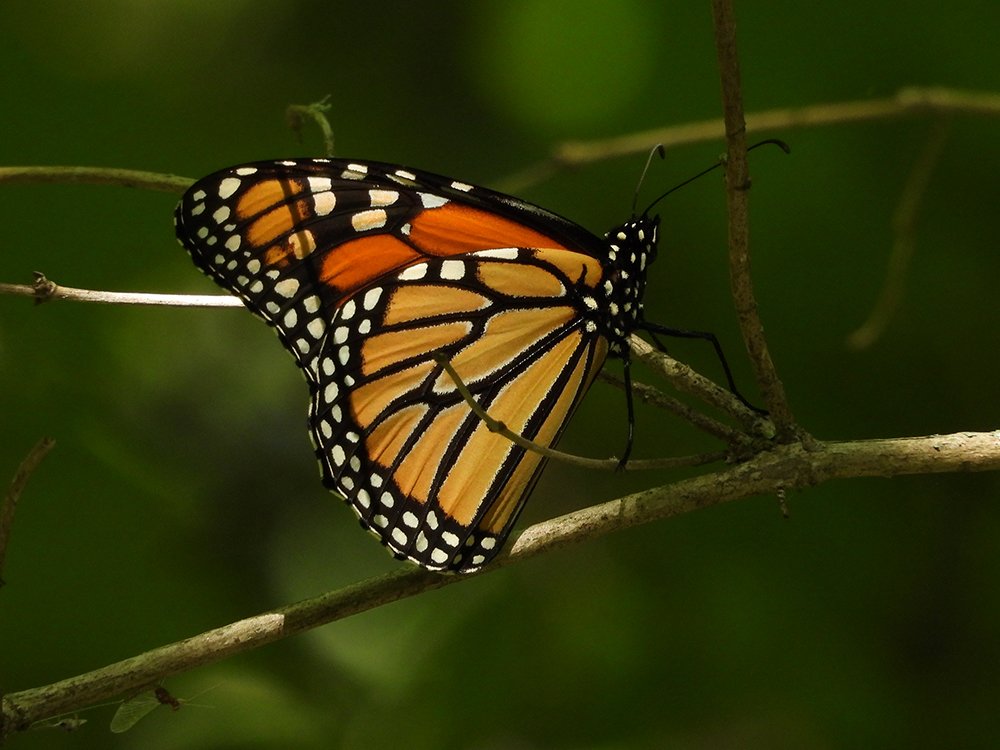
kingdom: Animalia
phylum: Arthropoda
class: Insecta
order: Lepidoptera
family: Nymphalidae
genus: Danaus
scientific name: Danaus plexippus
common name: Monarch
